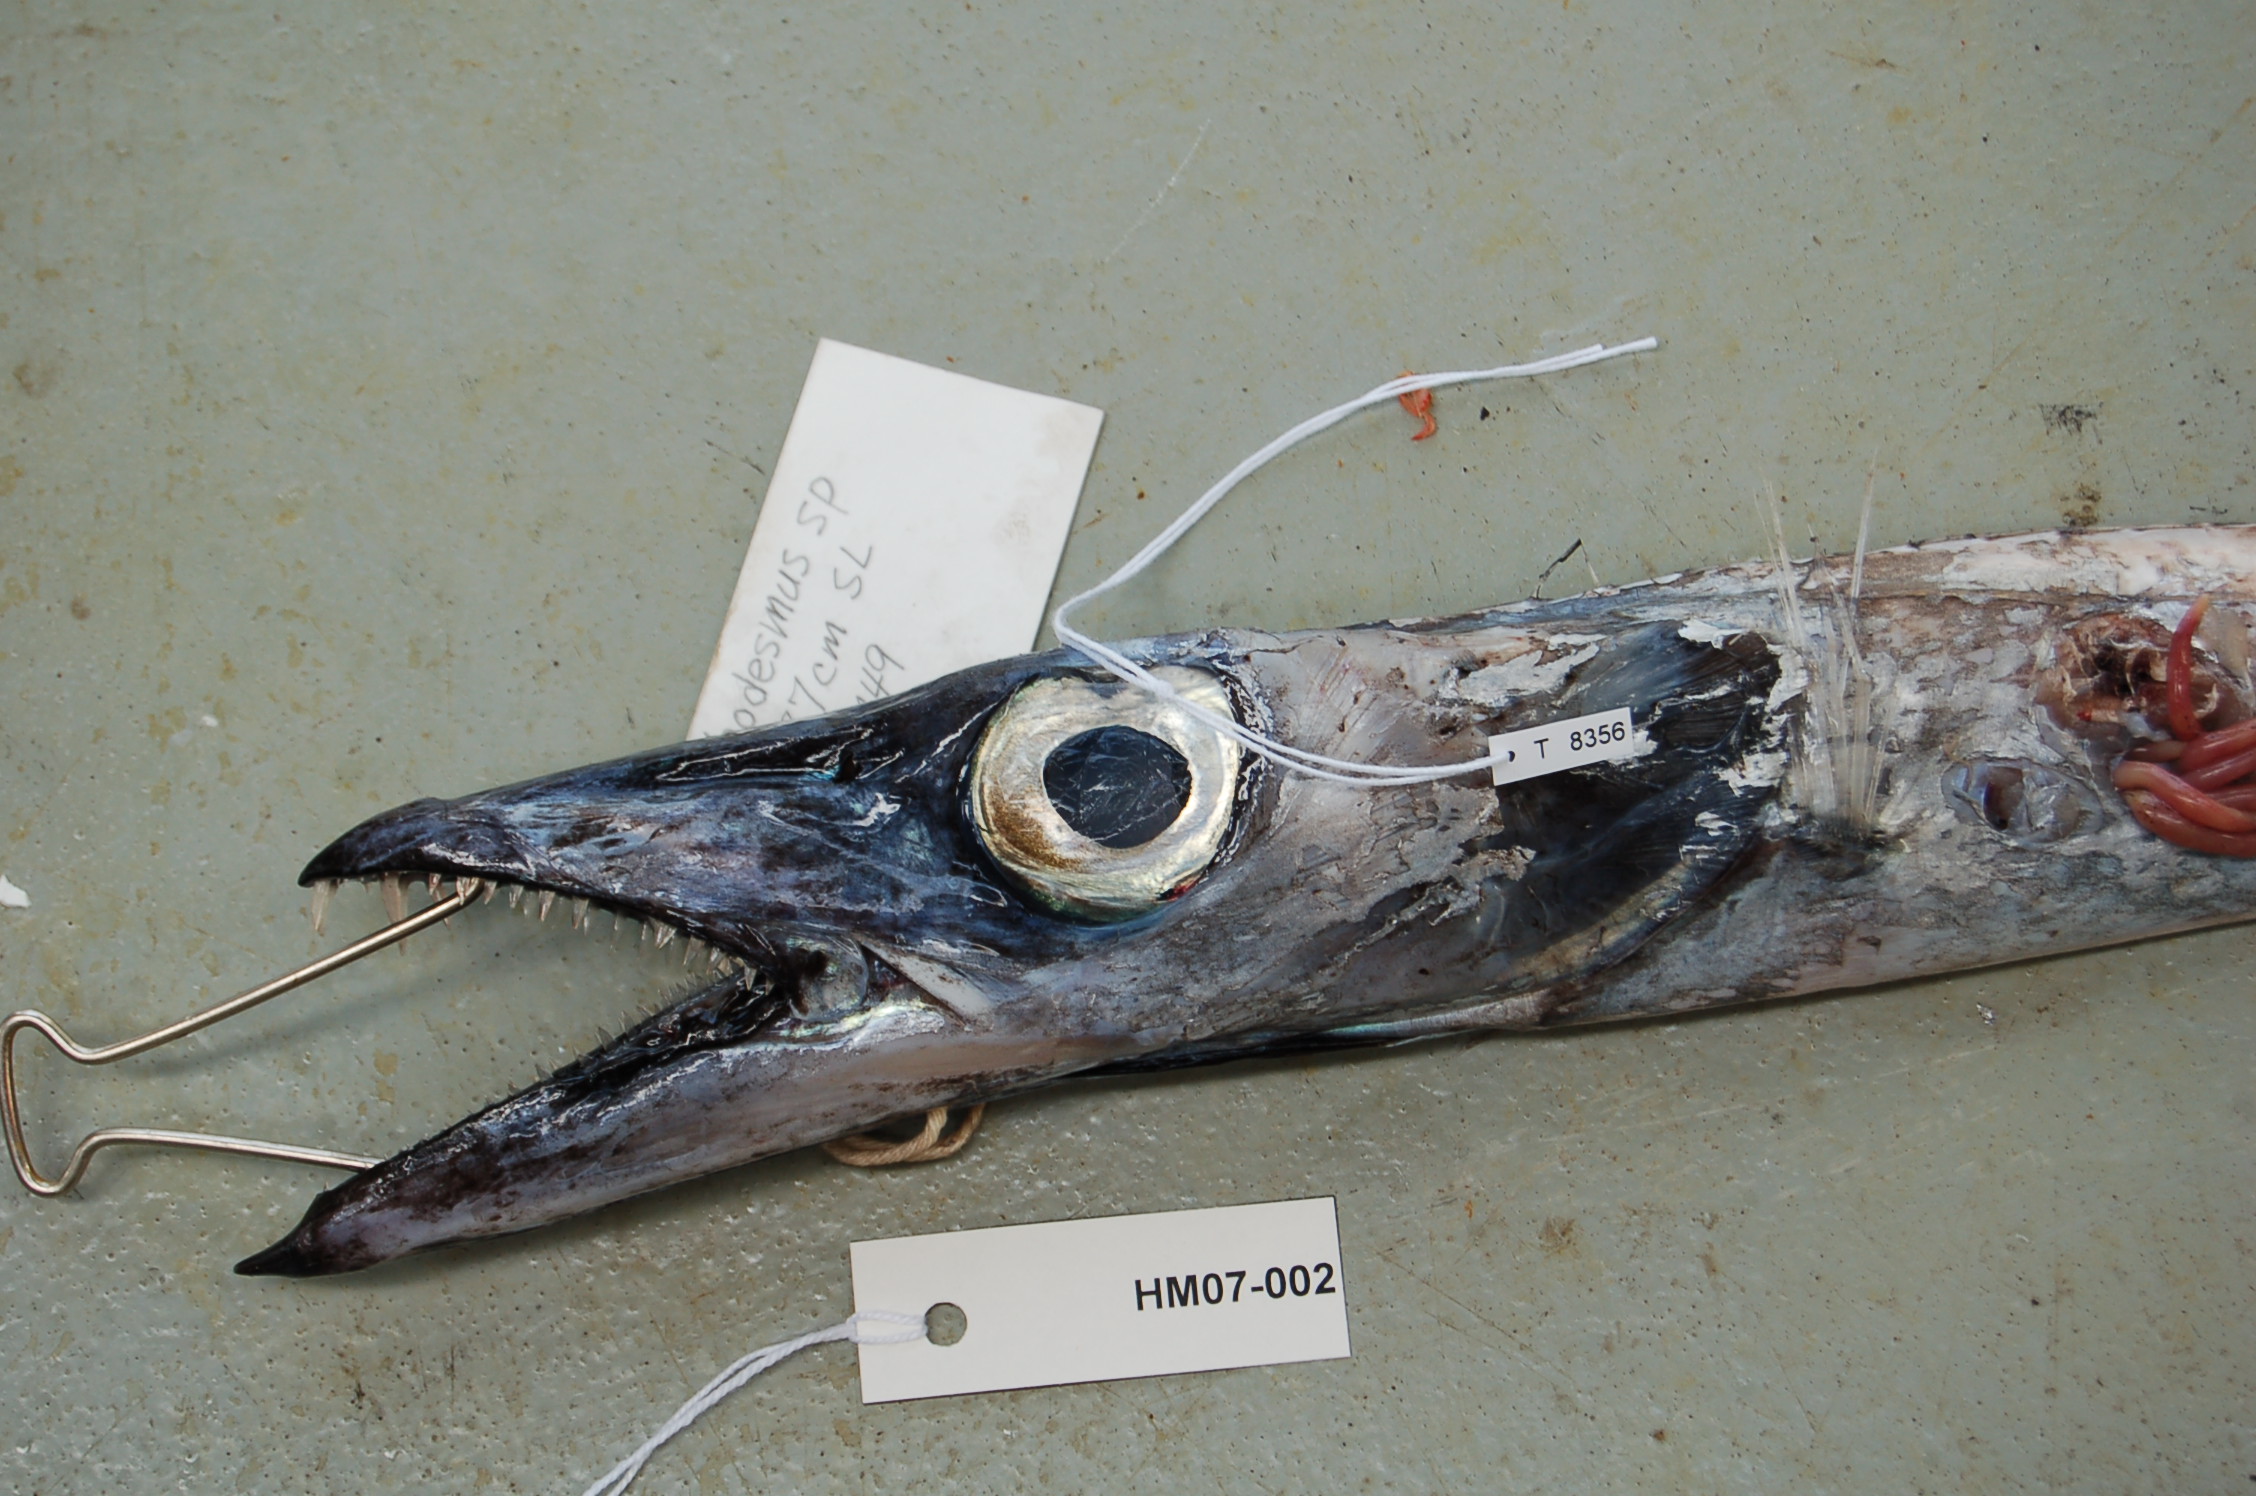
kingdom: Animalia
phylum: Chordata
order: Perciformes
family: Trichiuridae
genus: Benthodesmus
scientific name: Benthodesmus elongatus
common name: Frostfish
